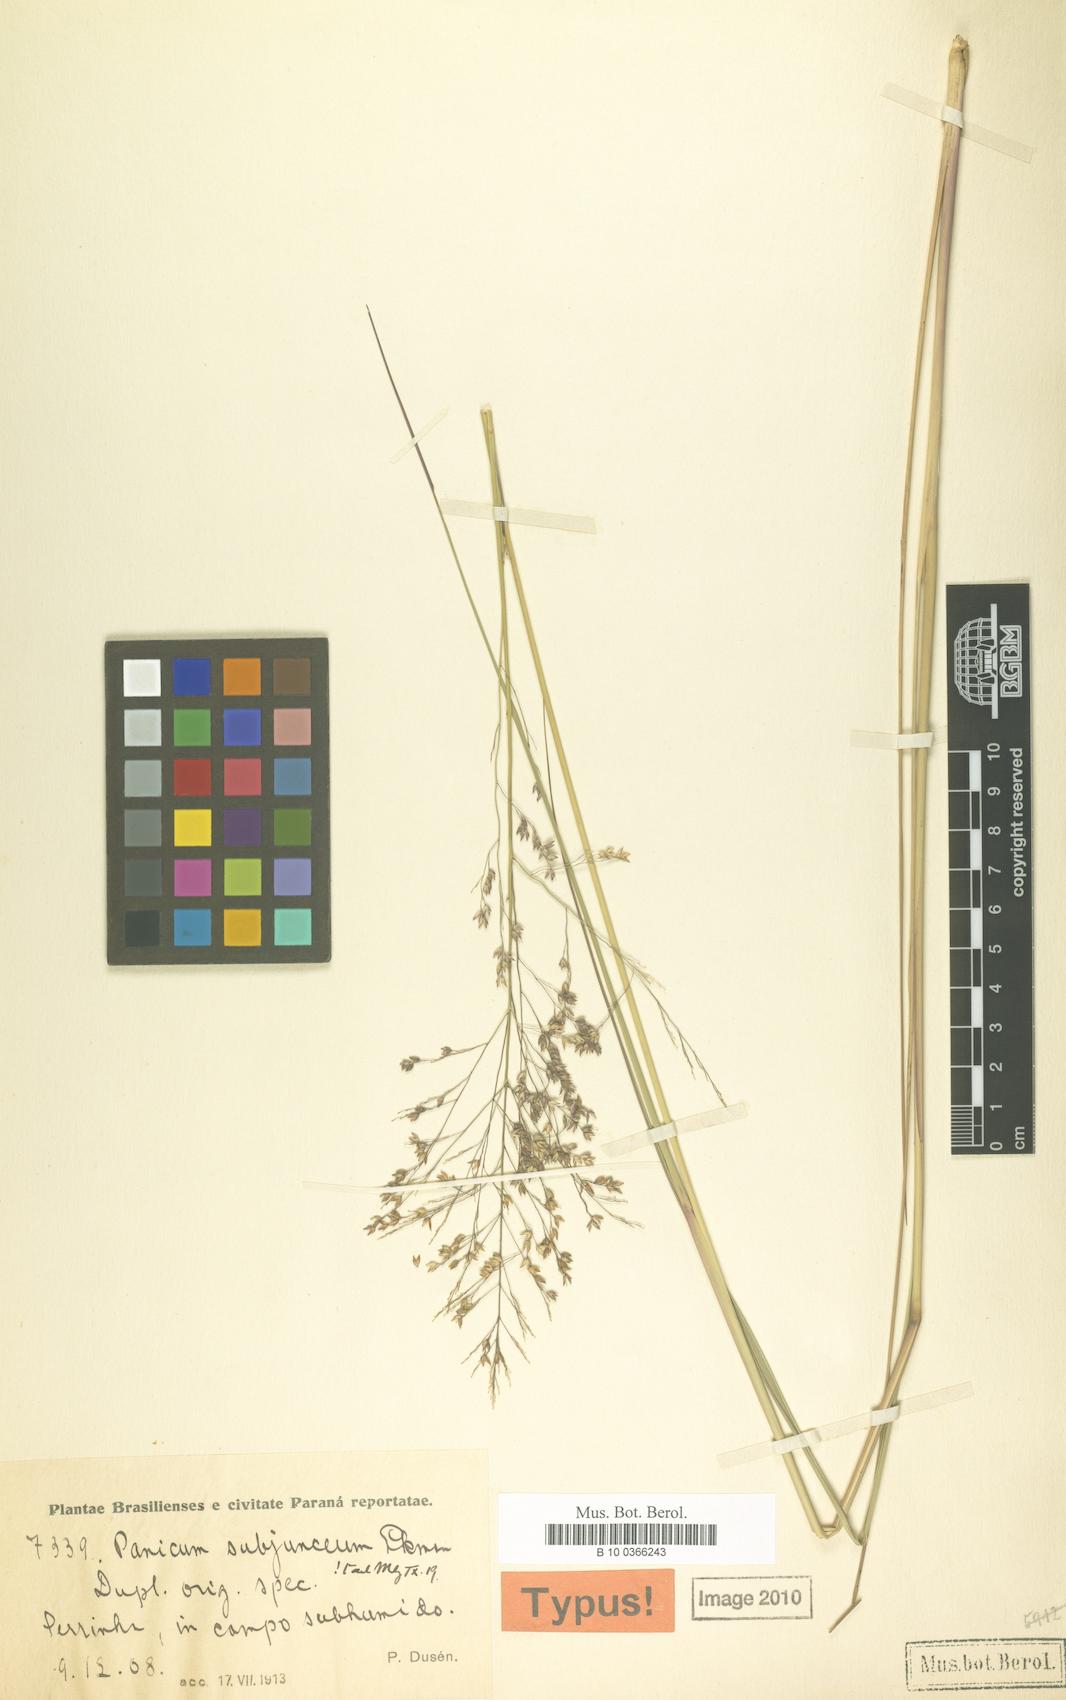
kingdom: Plantae
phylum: Tracheophyta
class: Liliopsida
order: Poales
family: Poaceae
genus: Panicum
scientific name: Panicum glabripes
